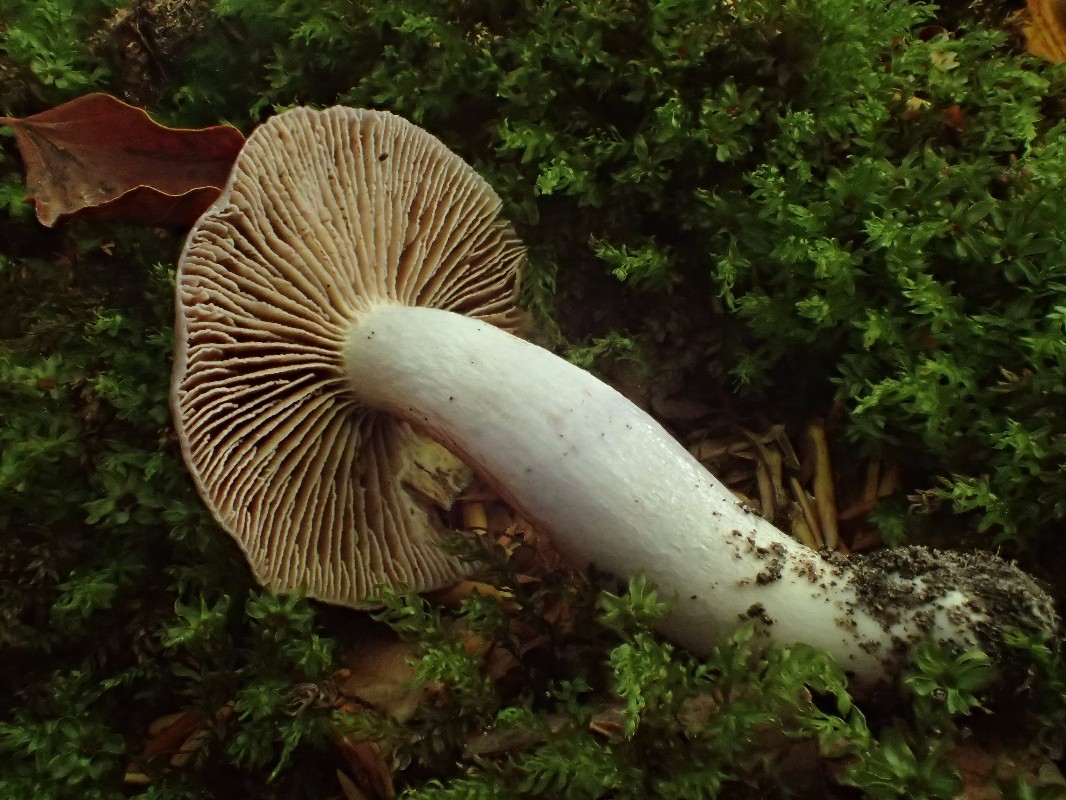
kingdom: Fungi
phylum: Basidiomycota
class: Agaricomycetes
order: Agaricales
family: Cortinariaceae
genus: Cortinarius
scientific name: Cortinarius elatior
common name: høj slørhat
